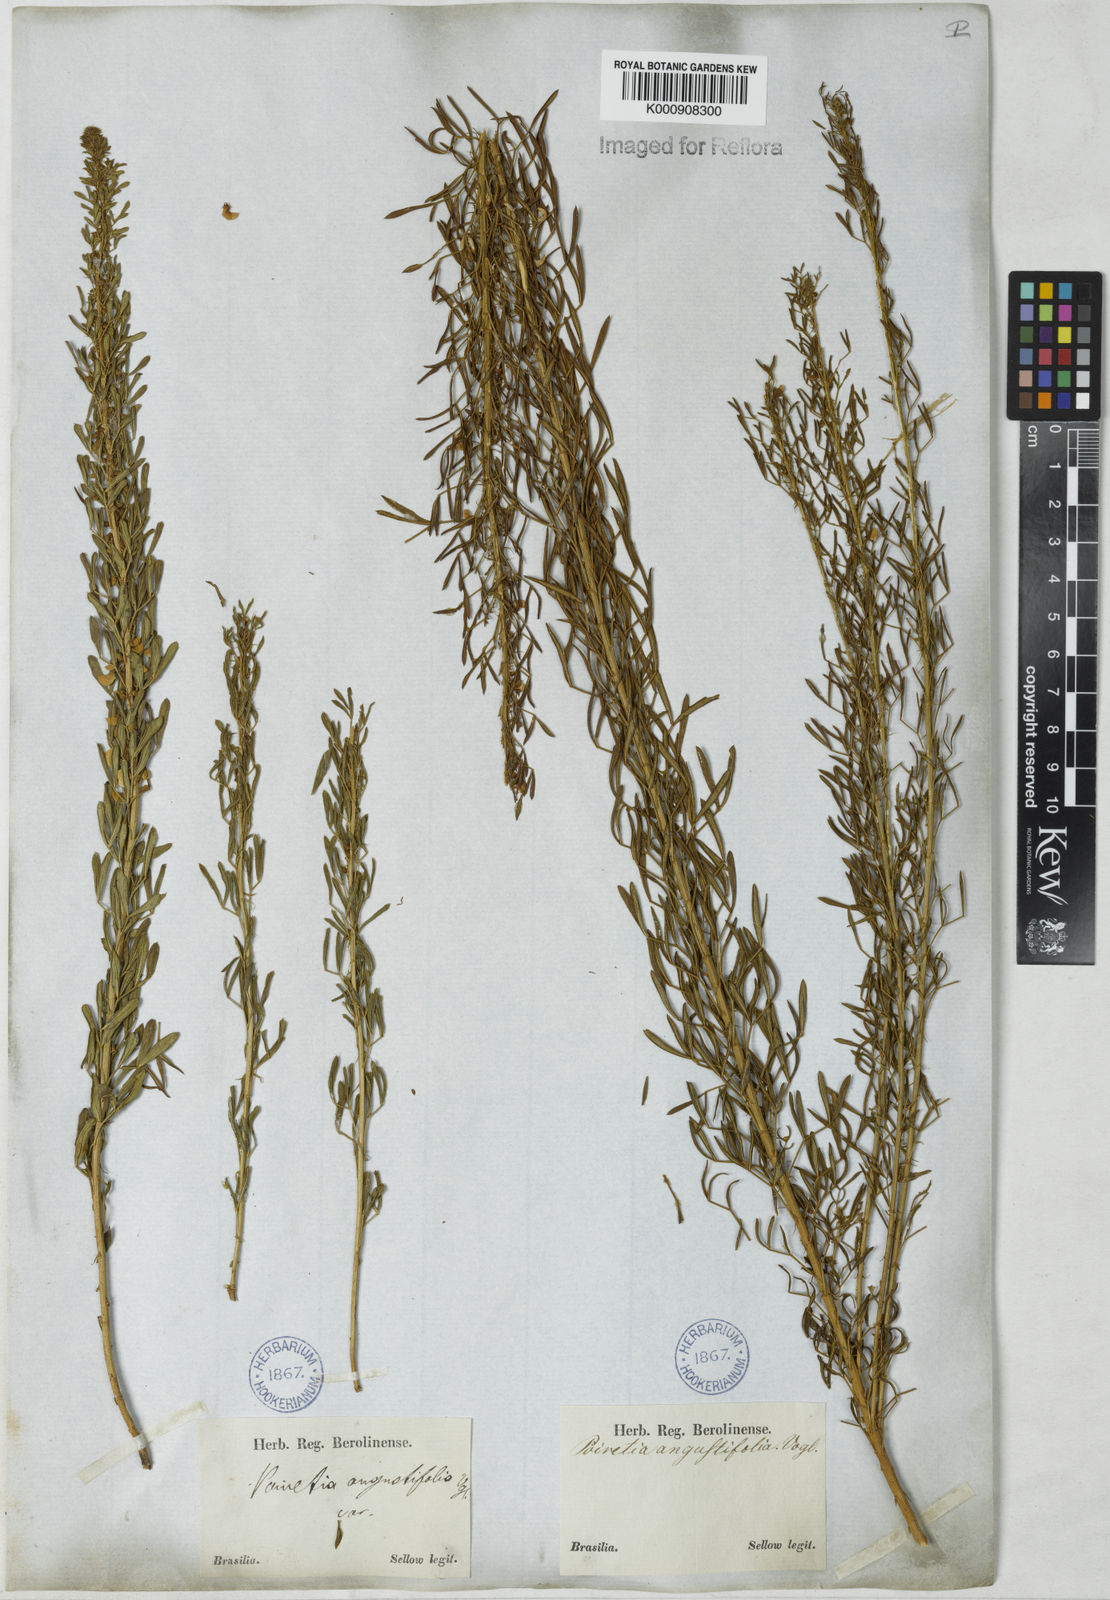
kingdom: Plantae
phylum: Tracheophyta
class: Magnoliopsida
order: Fabales
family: Fabaceae
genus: Poiretia
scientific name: Poiretia angustifolia
